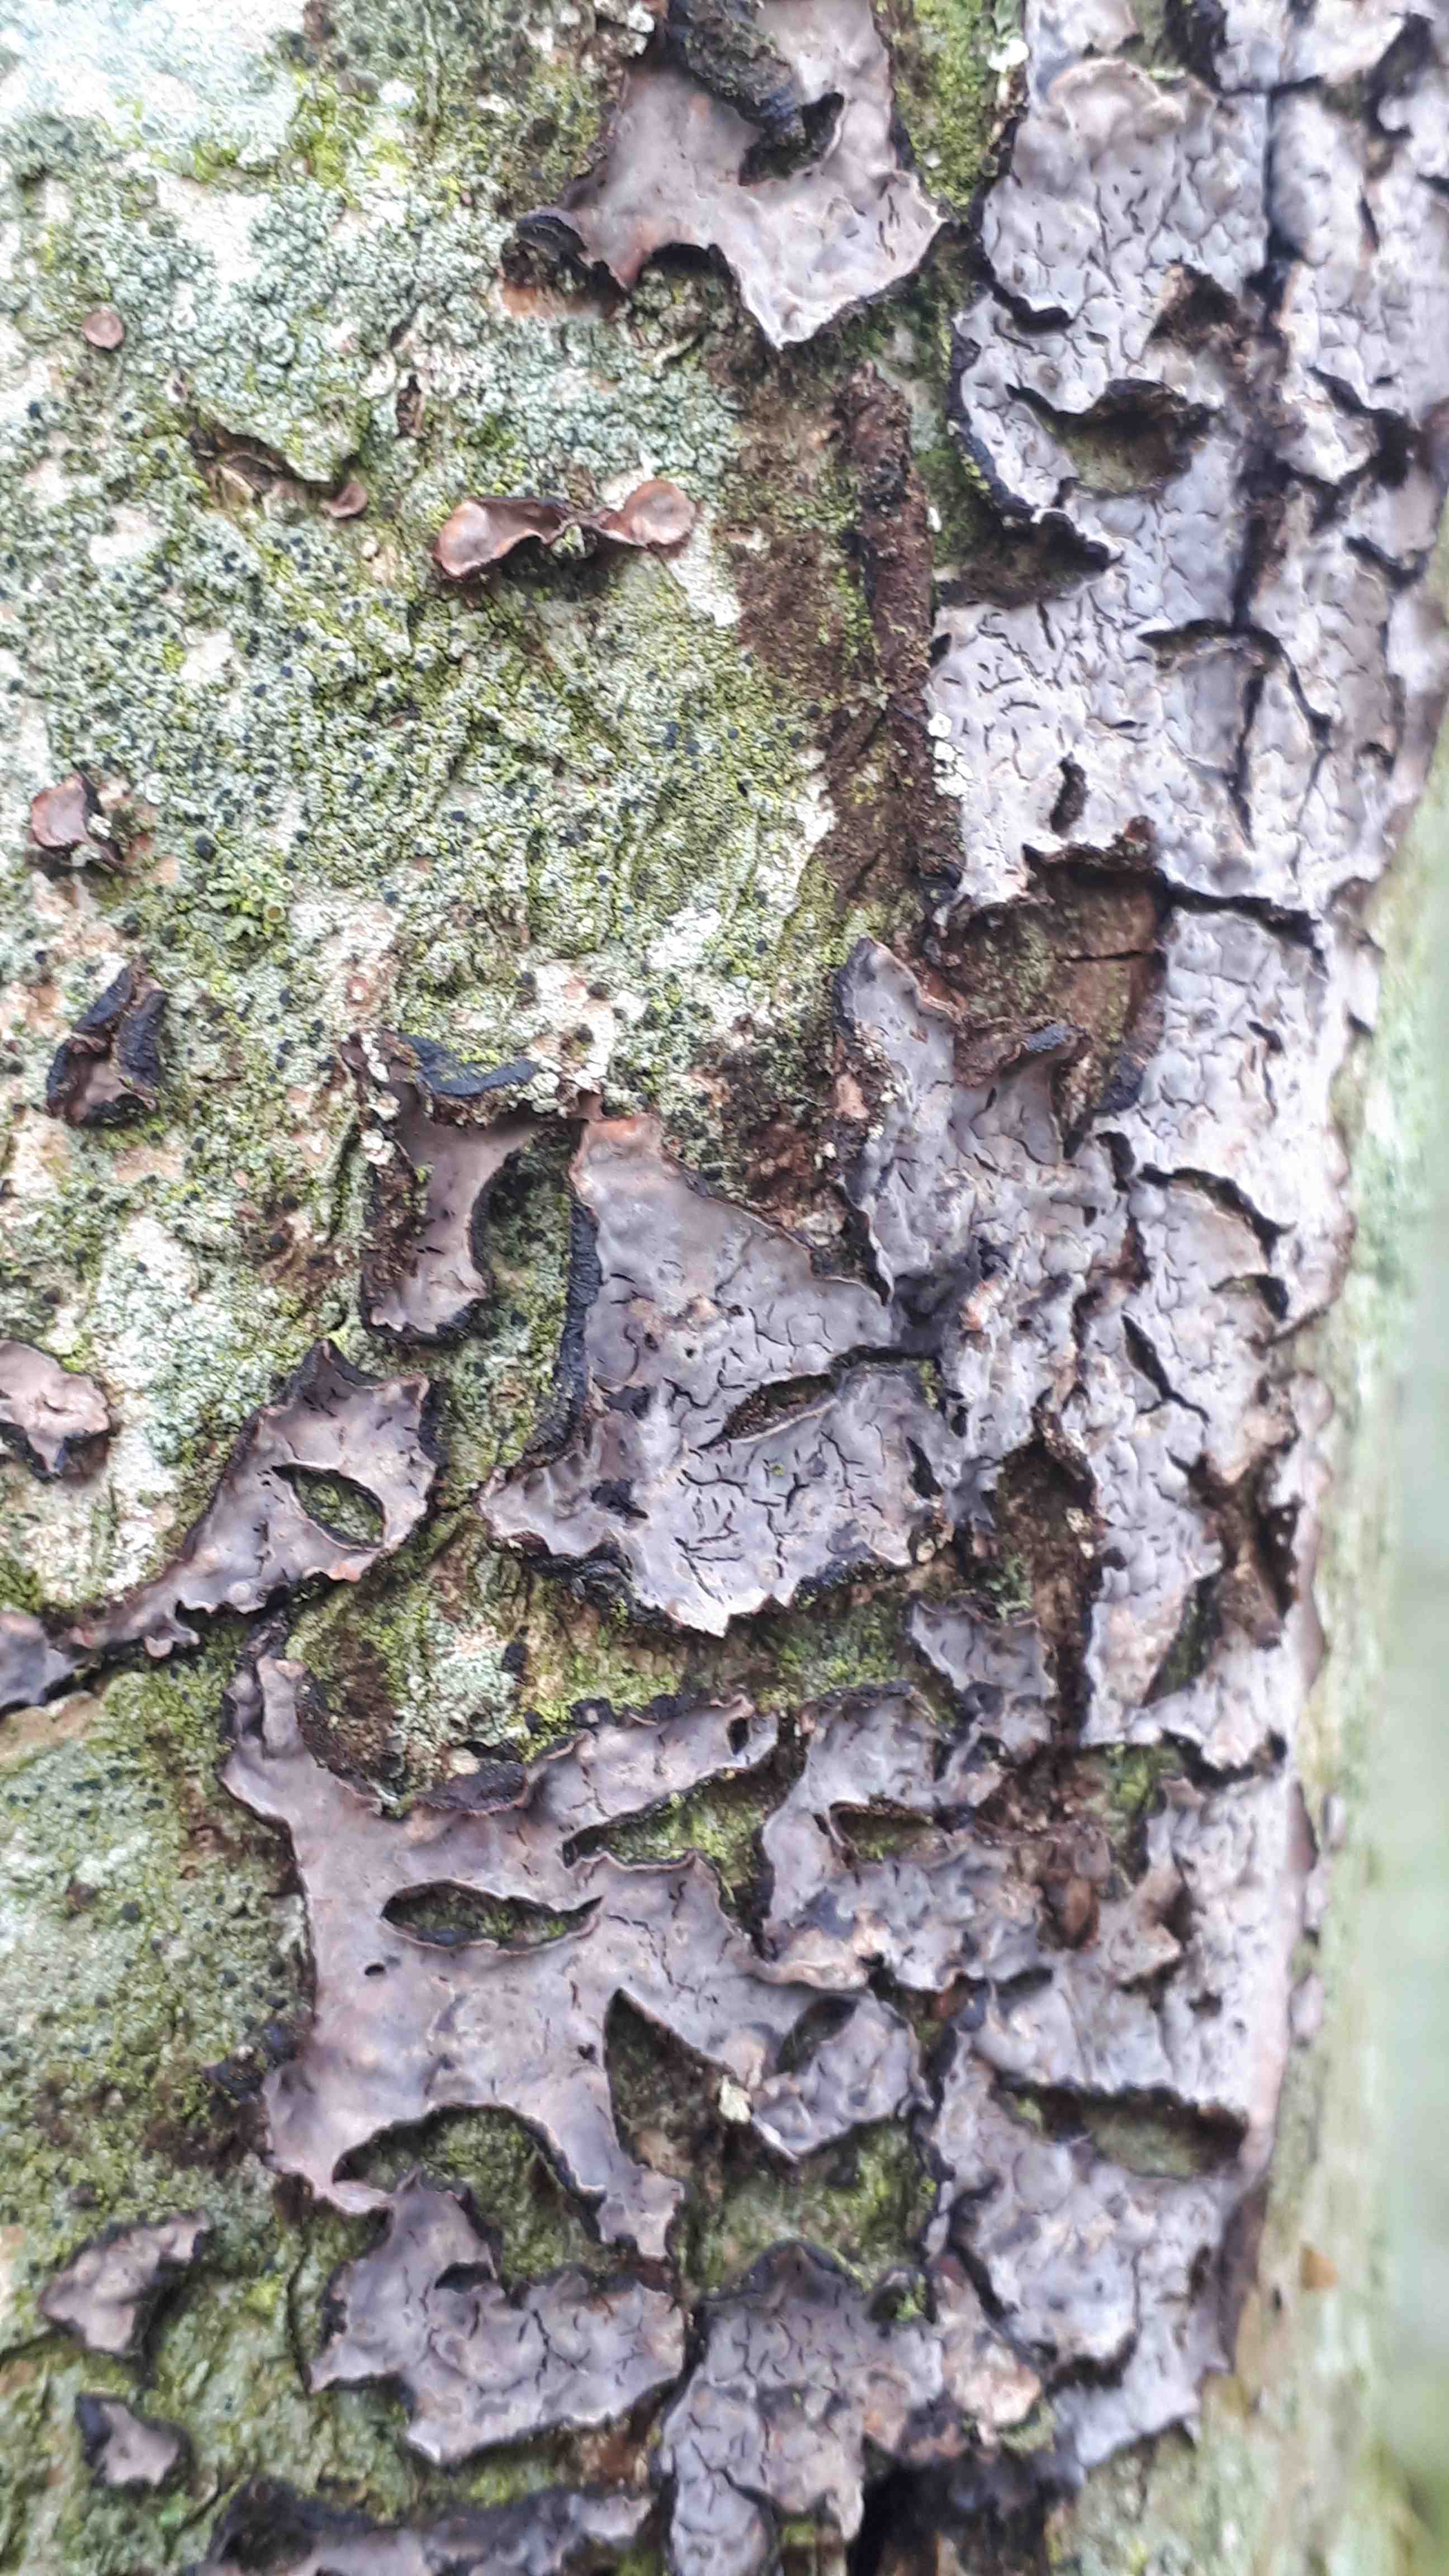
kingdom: Fungi
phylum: Basidiomycota
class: Agaricomycetes
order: Russulales
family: Peniophoraceae
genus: Peniophora
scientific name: Peniophora quercina
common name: ege-voksskind
